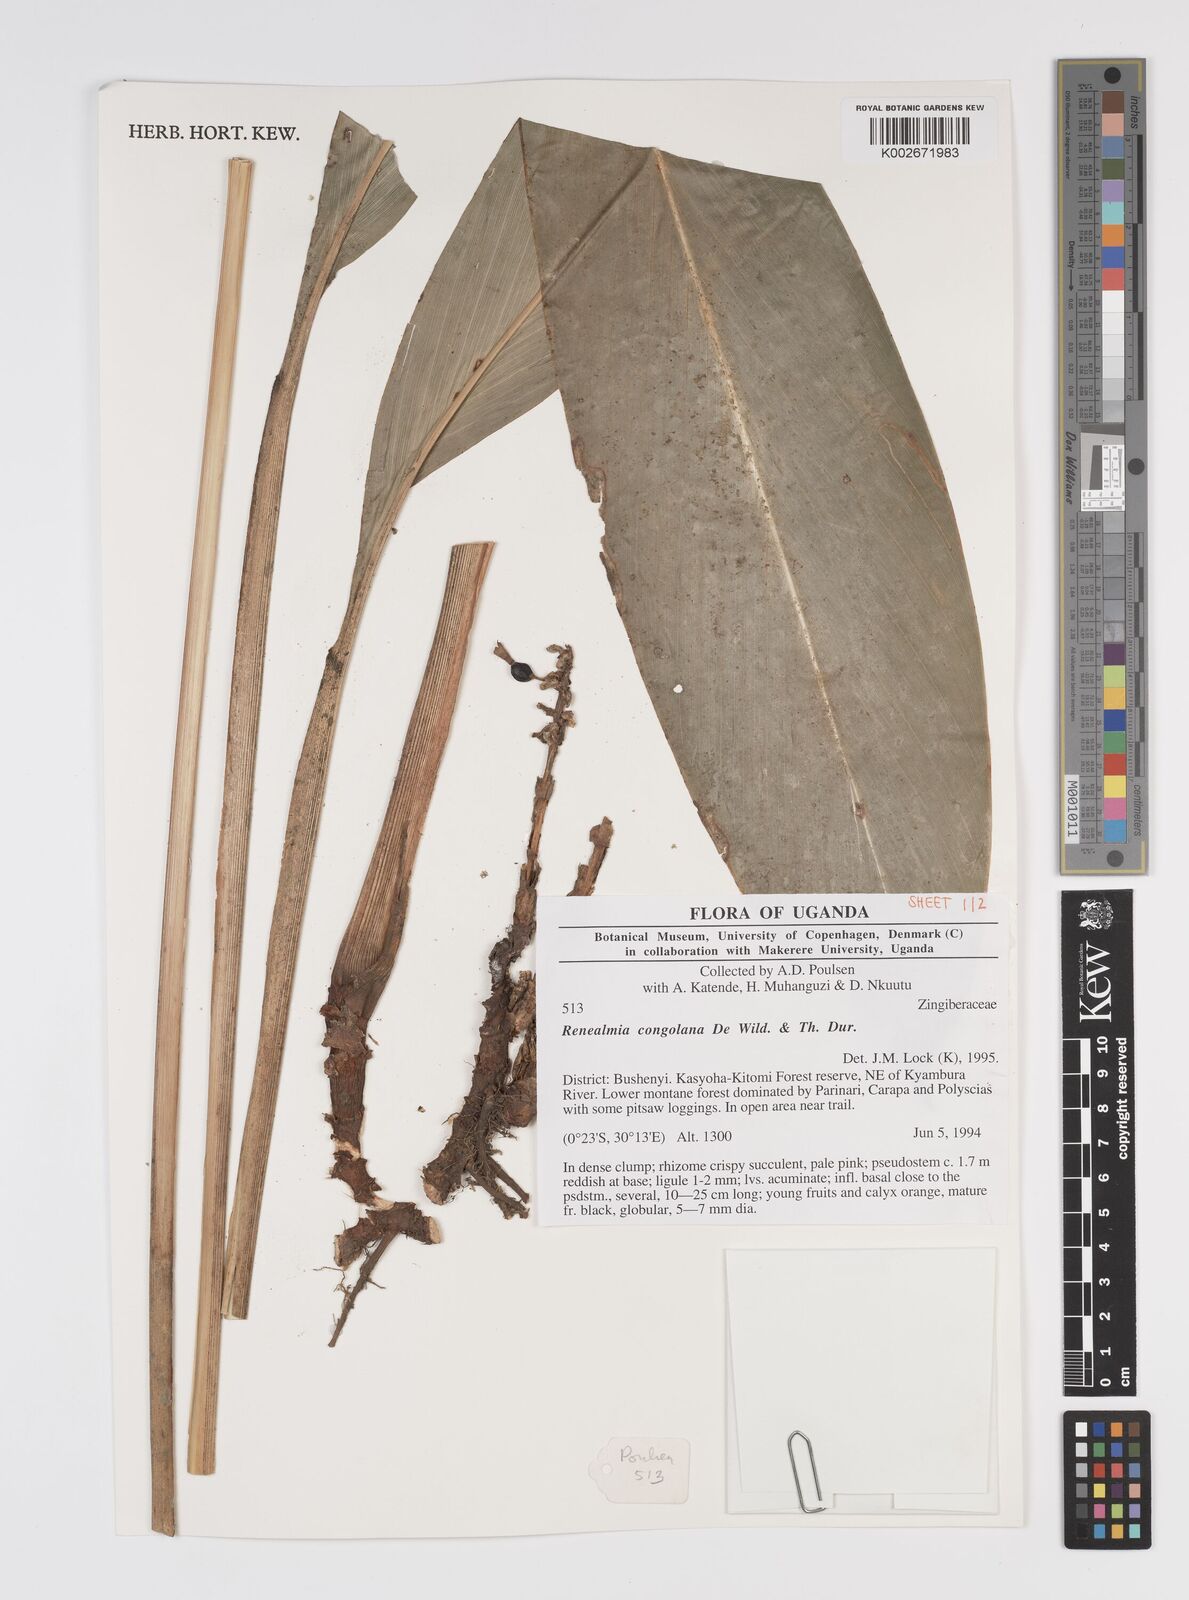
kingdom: Plantae
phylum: Tracheophyta
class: Liliopsida
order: Zingiberales
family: Zingiberaceae
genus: Renealmia
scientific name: Renealmia congolana
